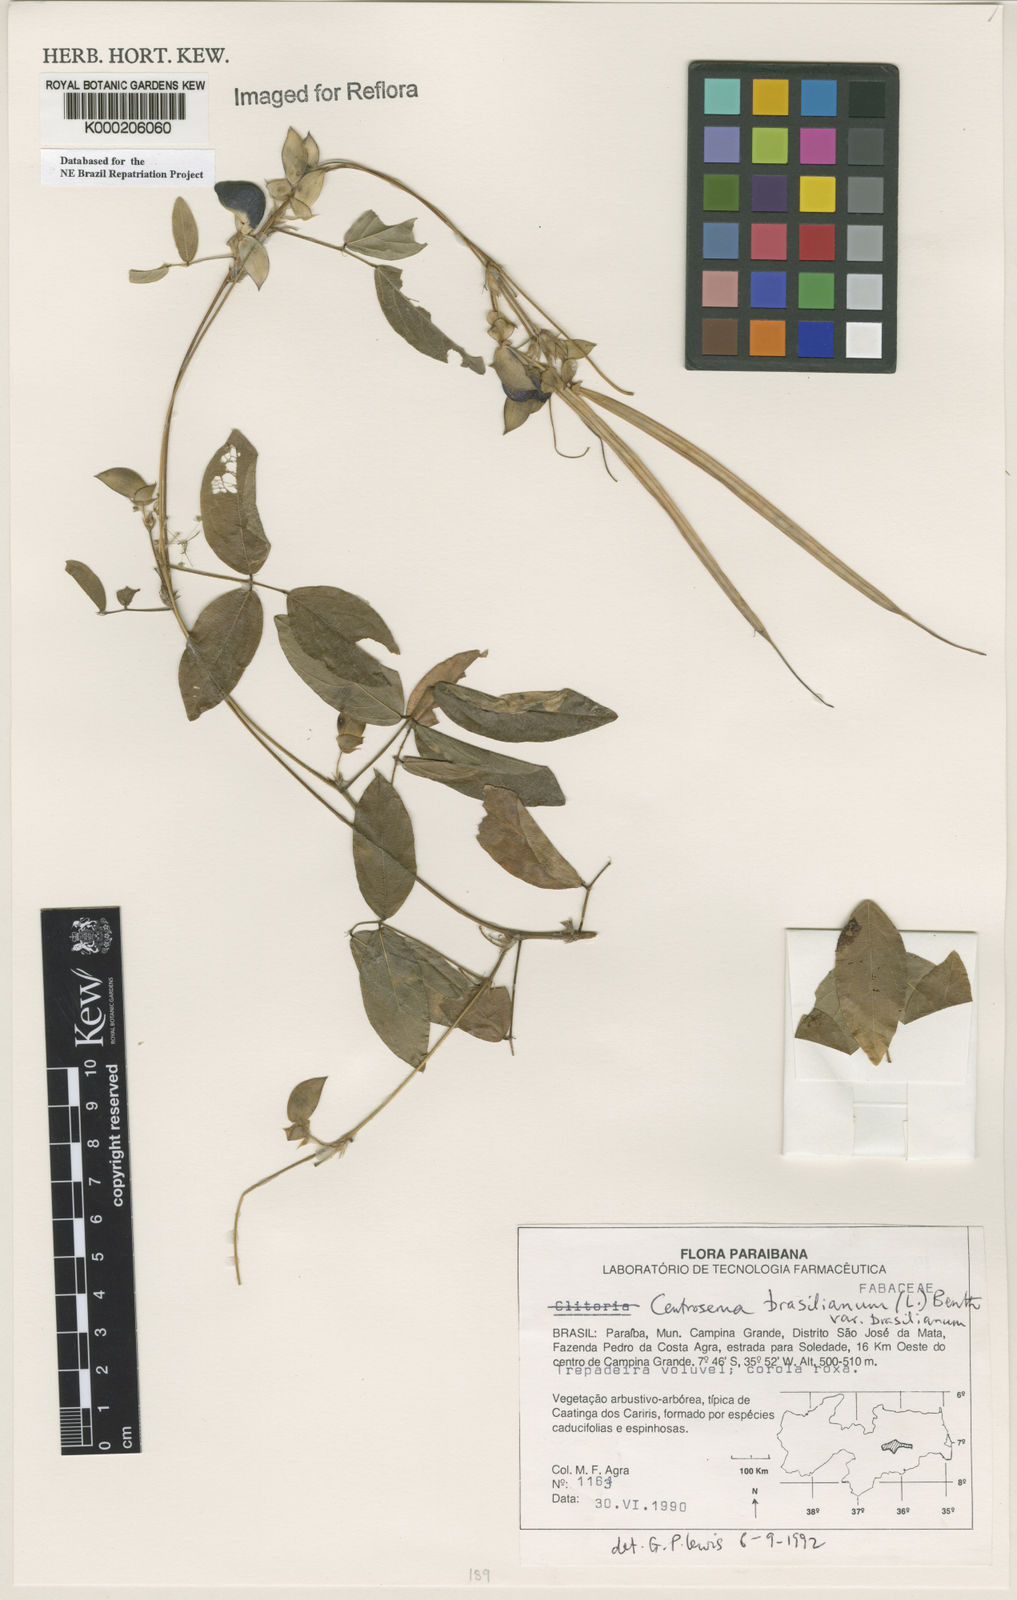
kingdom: Plantae
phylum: Tracheophyta
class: Magnoliopsida
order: Fabales
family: Fabaceae
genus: Centrosema
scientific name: Centrosema brasilianum
